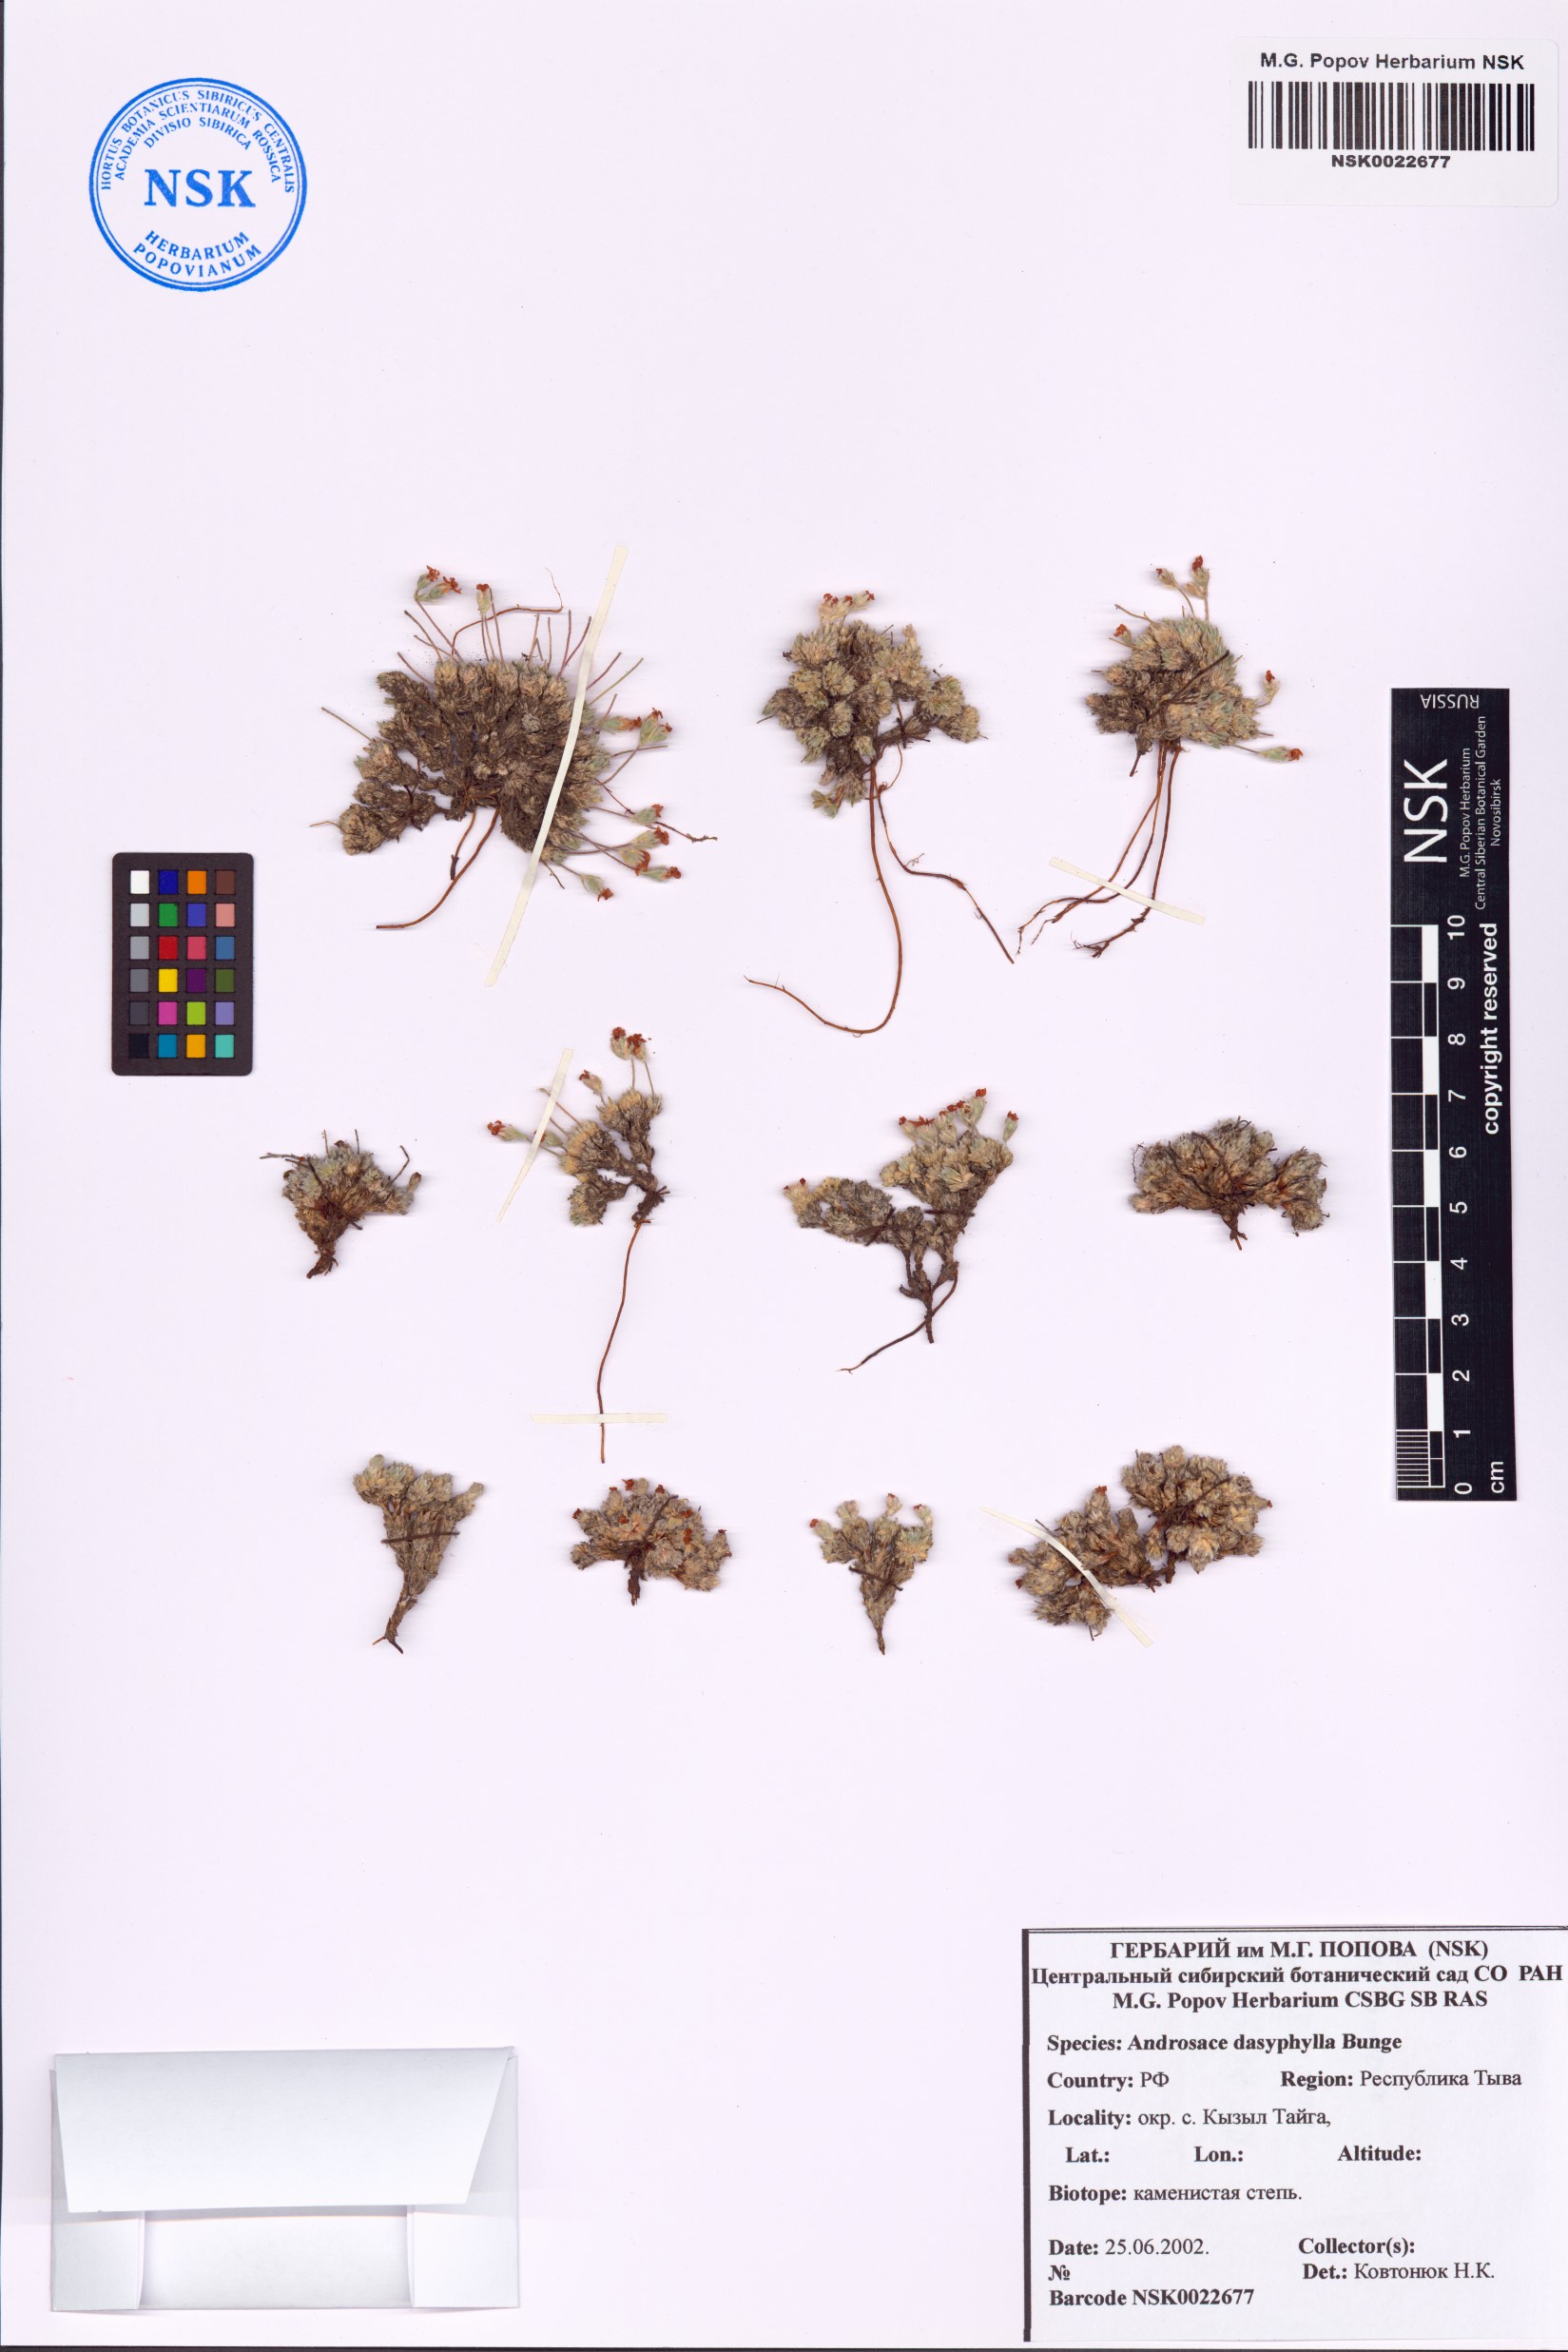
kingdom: Plantae
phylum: Tracheophyta
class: Magnoliopsida
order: Ericales
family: Primulaceae
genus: Androsace
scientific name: Androsace dasyphylla
